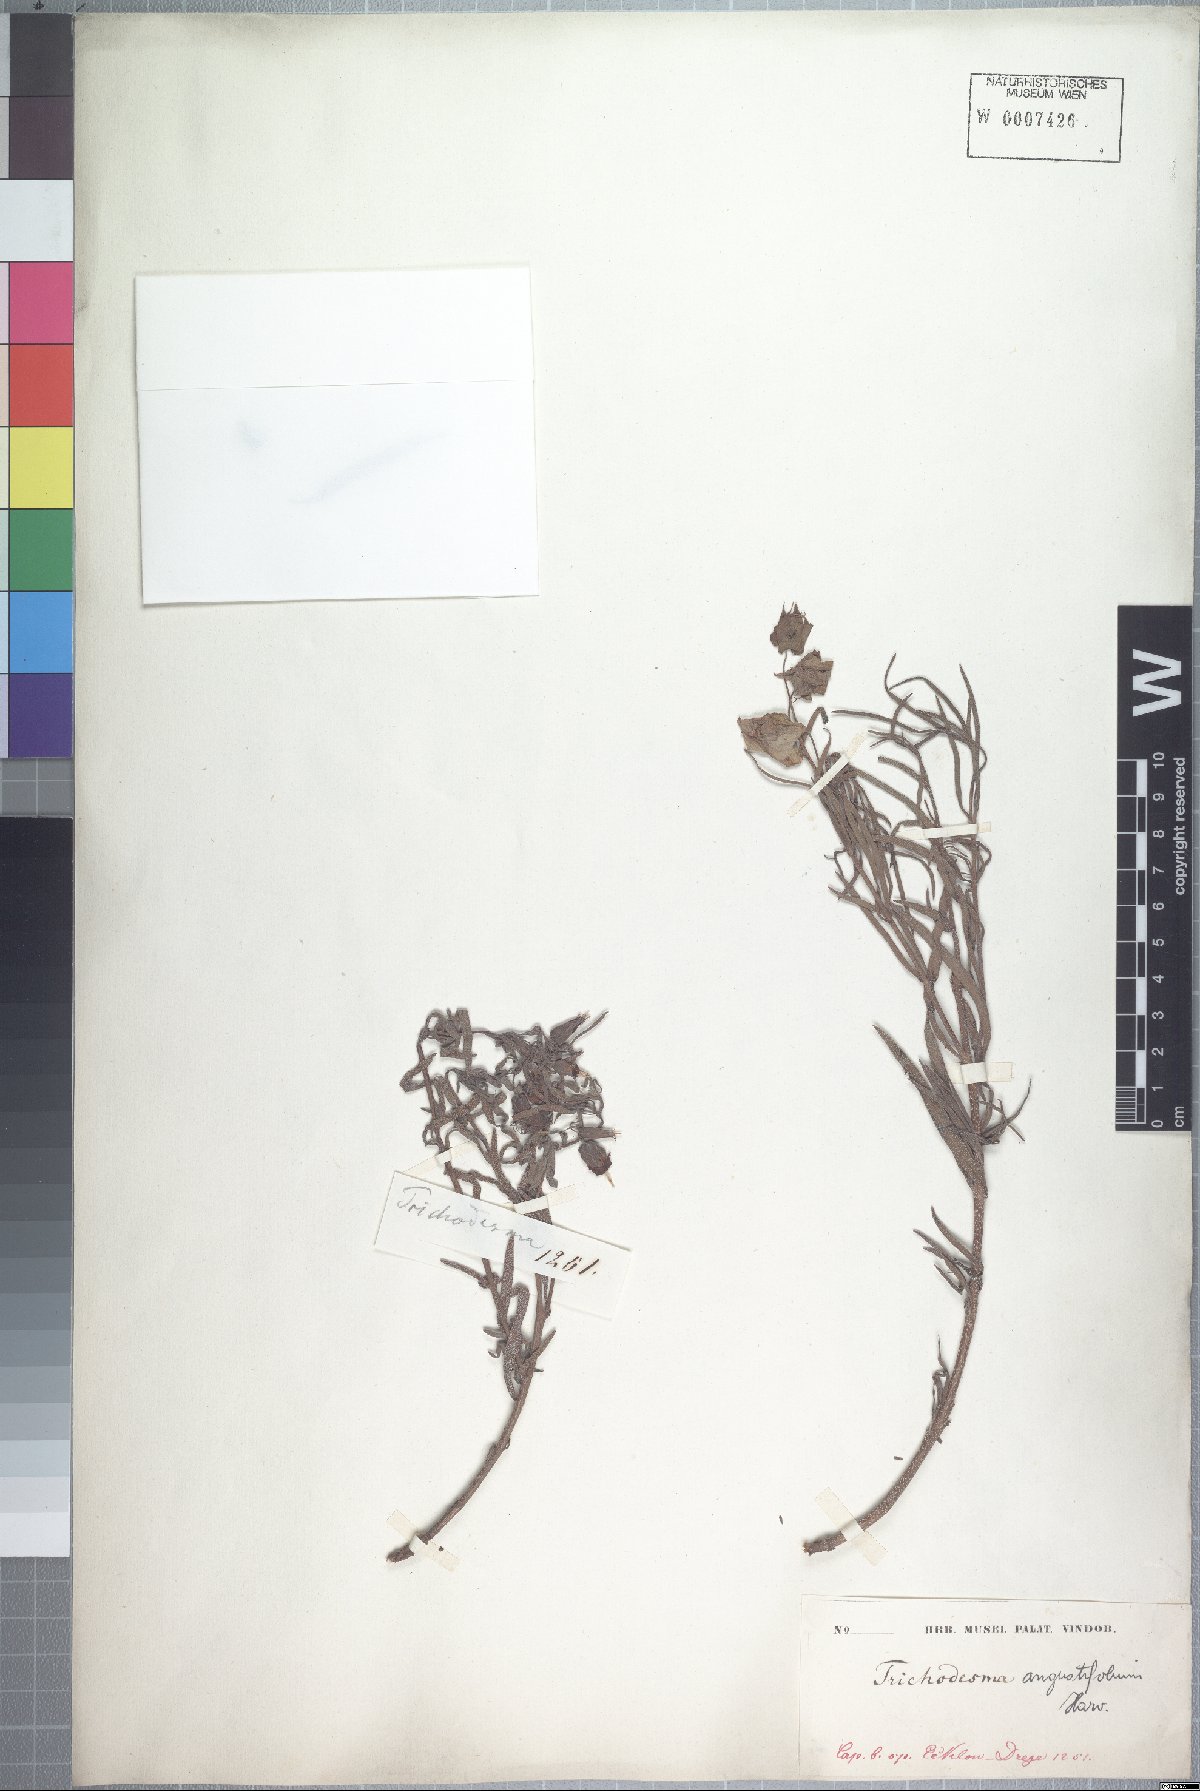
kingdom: Plantae
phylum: Tracheophyta
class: Magnoliopsida
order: Boraginales
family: Boraginaceae
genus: Trichodesma
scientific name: Trichodesma angustifolium
